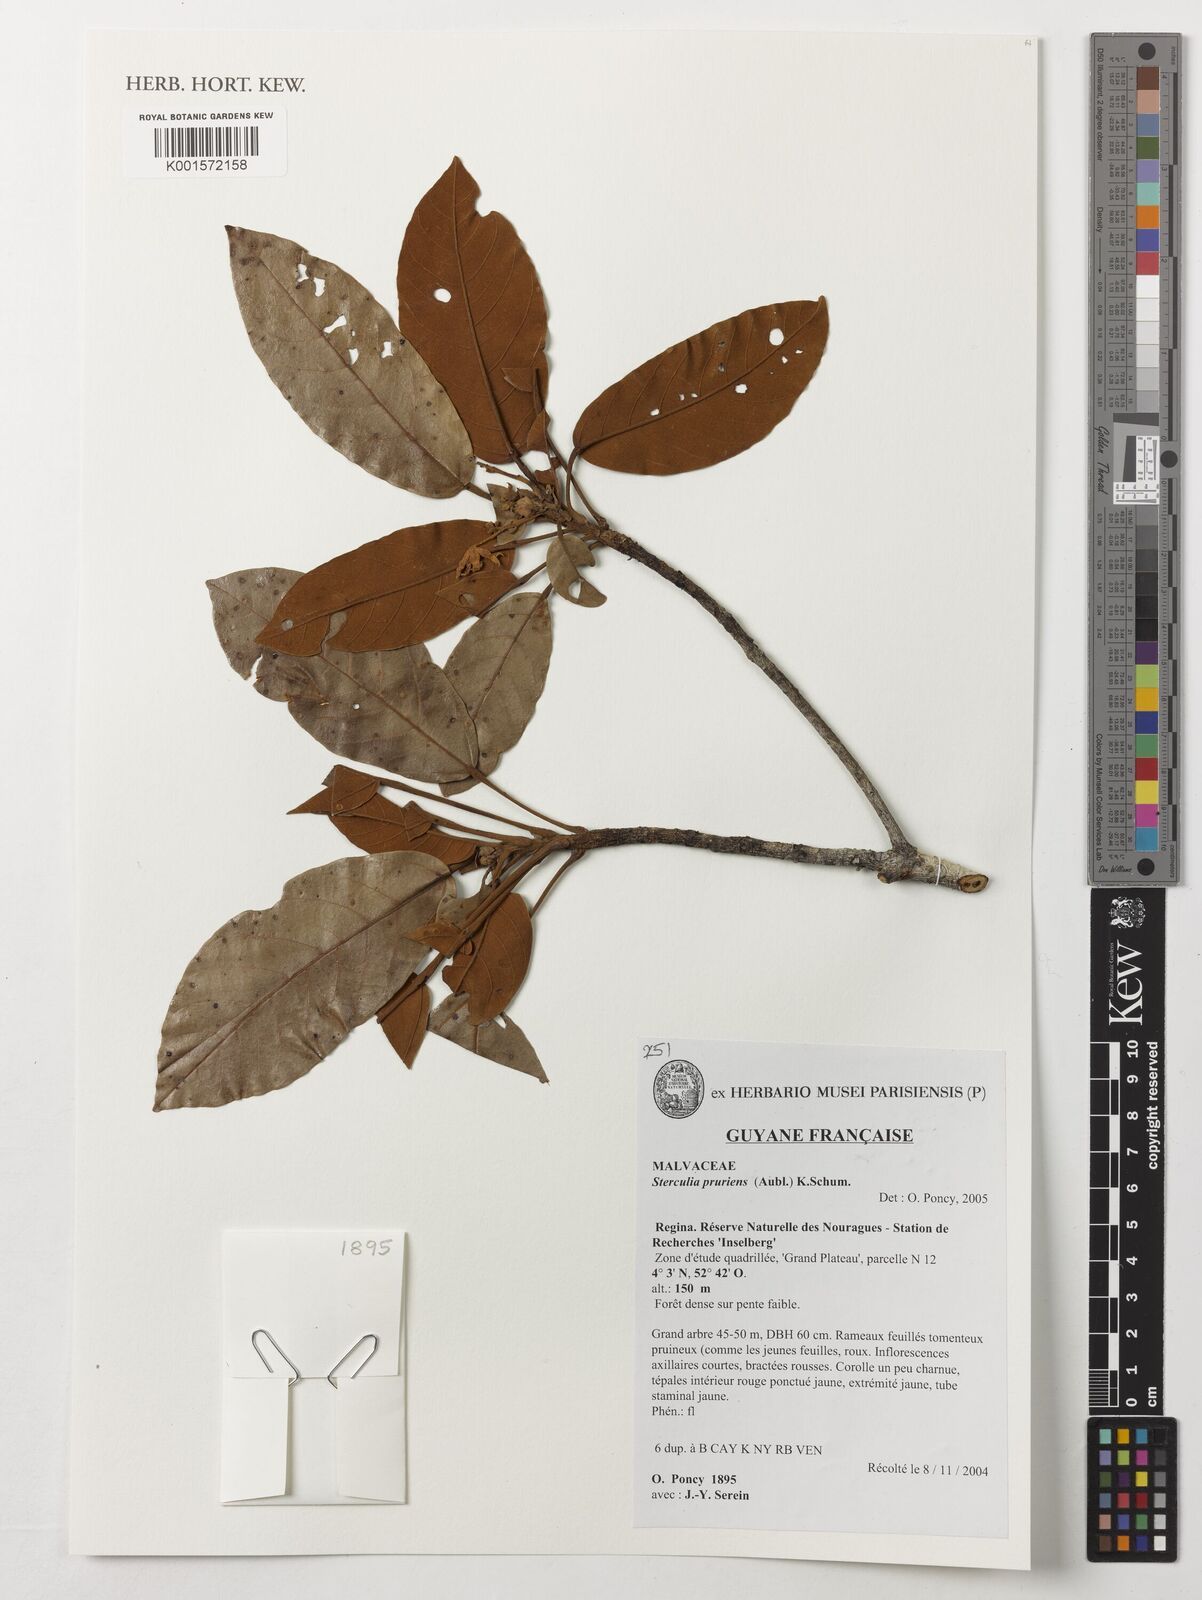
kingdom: Plantae
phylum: Tracheophyta
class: Magnoliopsida
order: Malvales
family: Malvaceae
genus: Sterculia
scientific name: Sterculia pruriens
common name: Grand mahot
